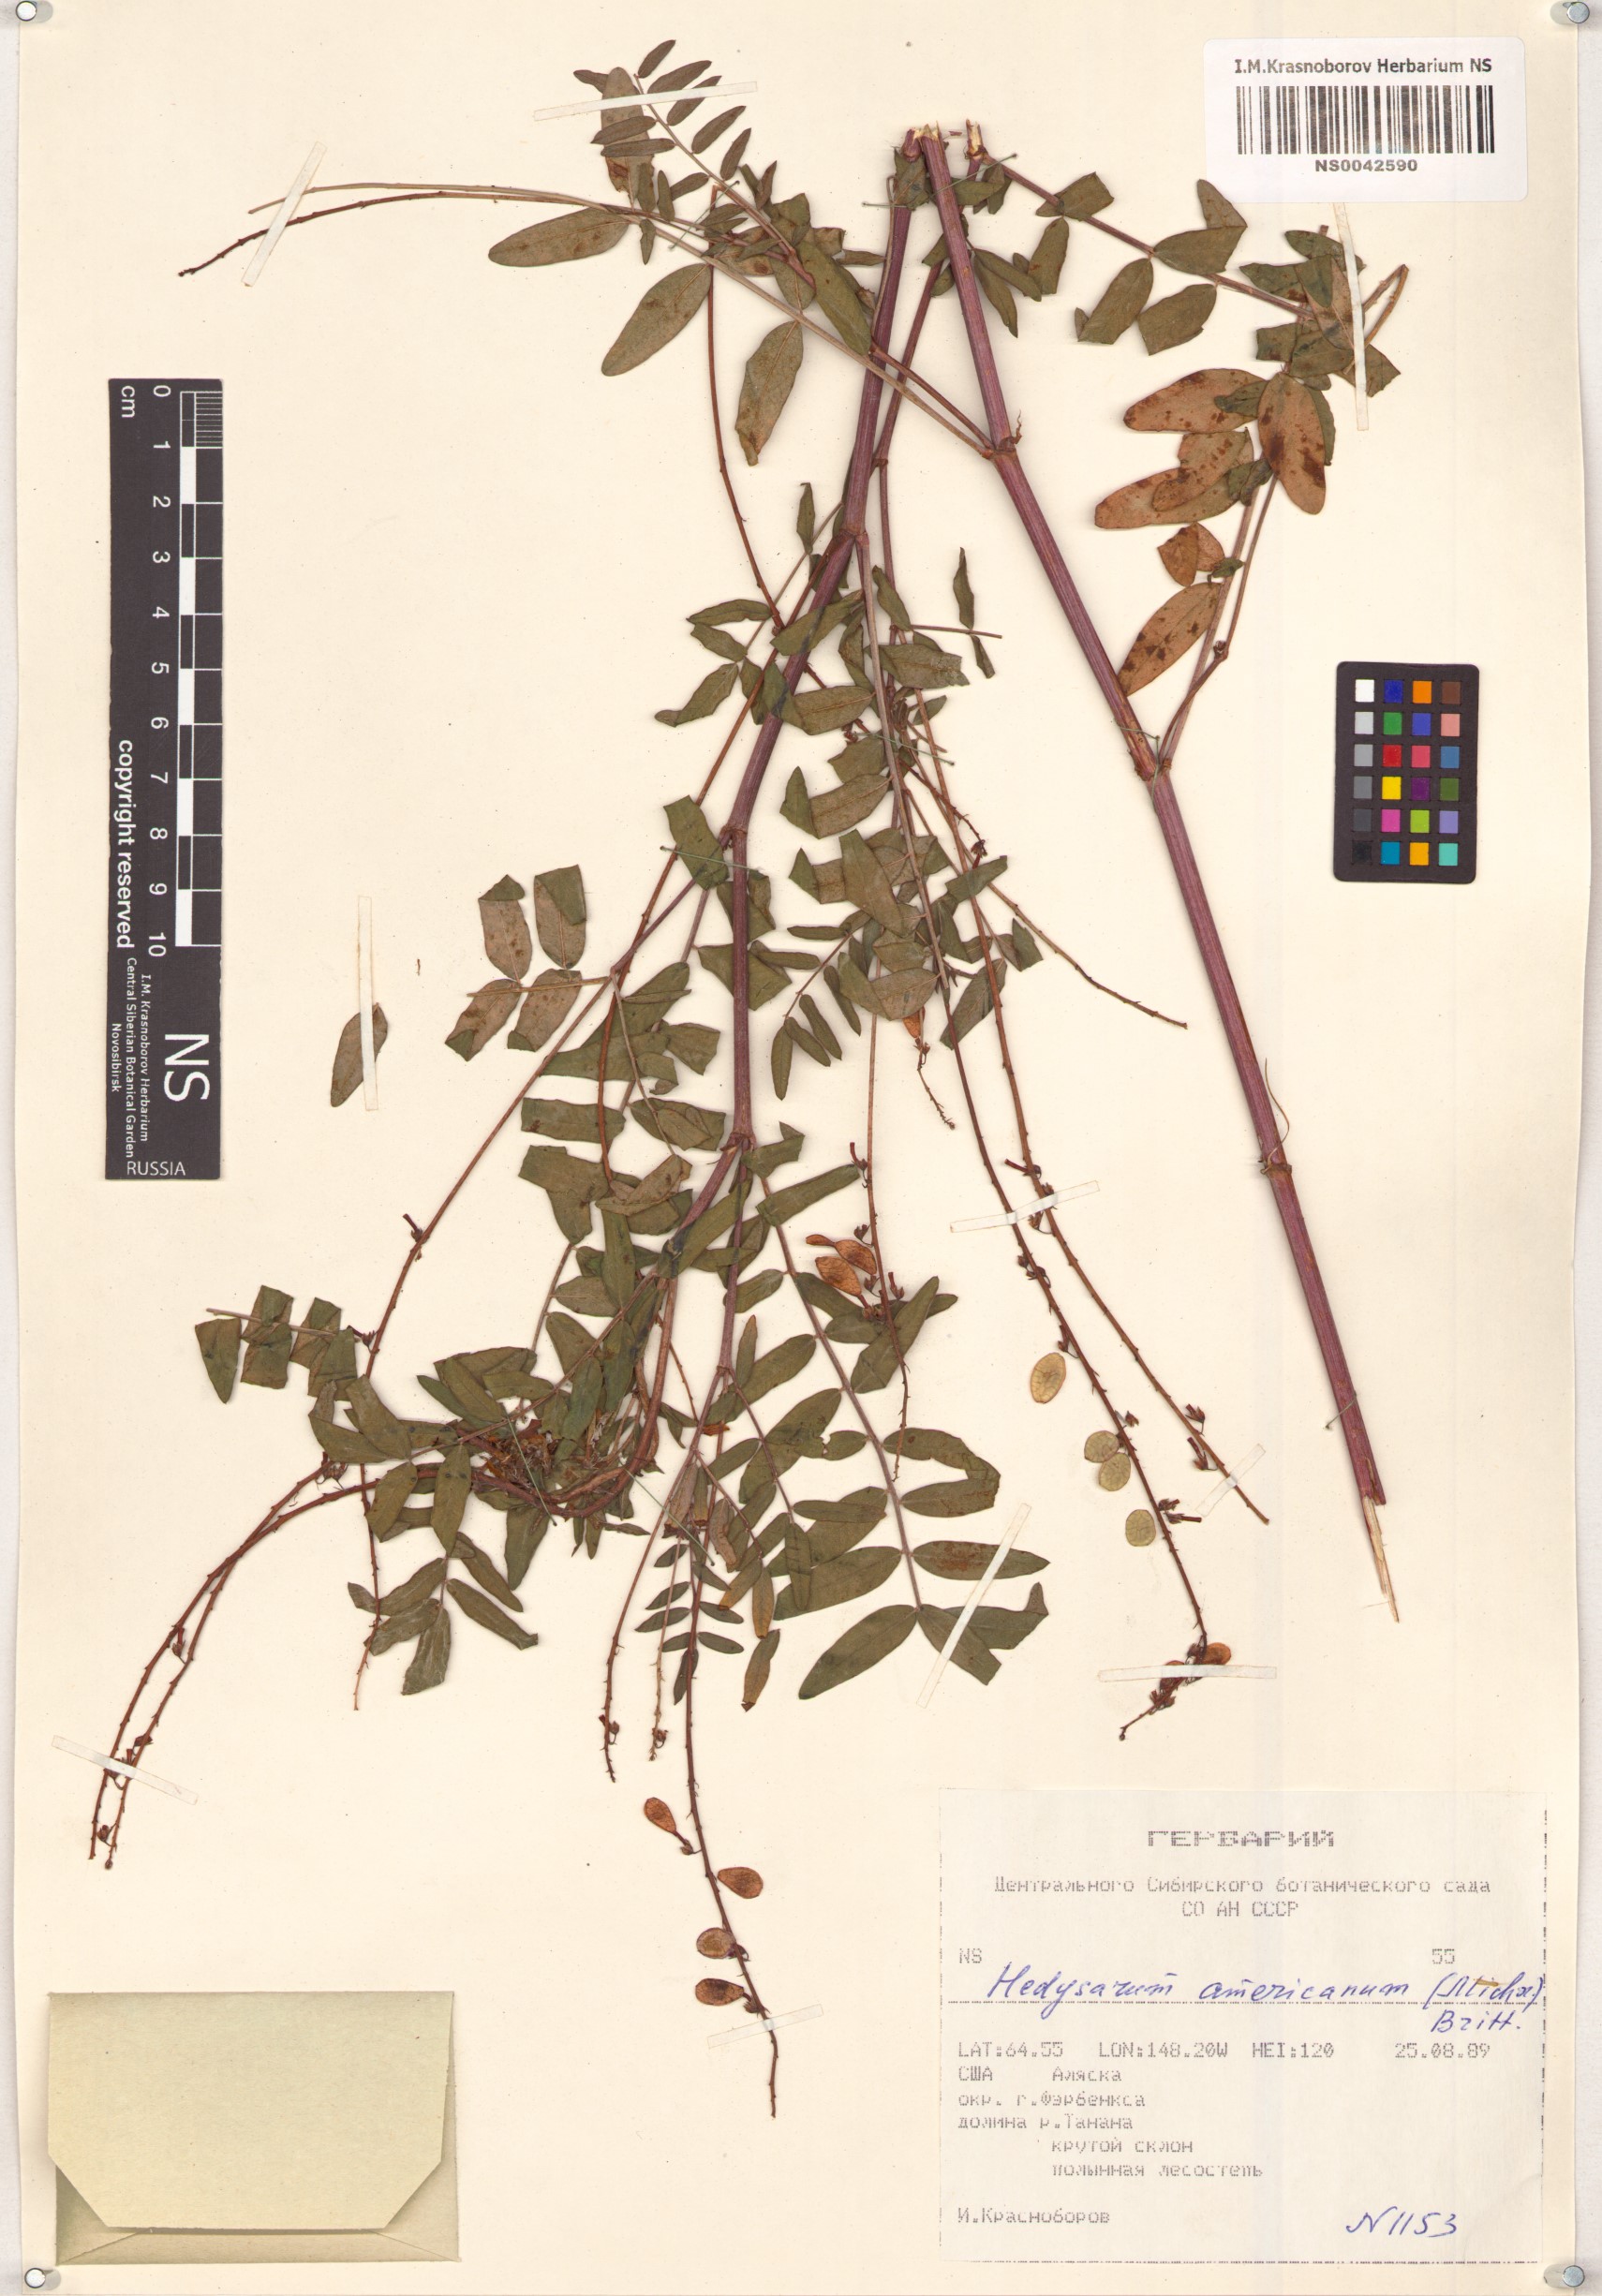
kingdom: Plantae
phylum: Tracheophyta
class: Magnoliopsida
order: Fabales
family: Fabaceae
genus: Hedysarum
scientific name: Hedysarum americanum
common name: Alpine hedysarum
